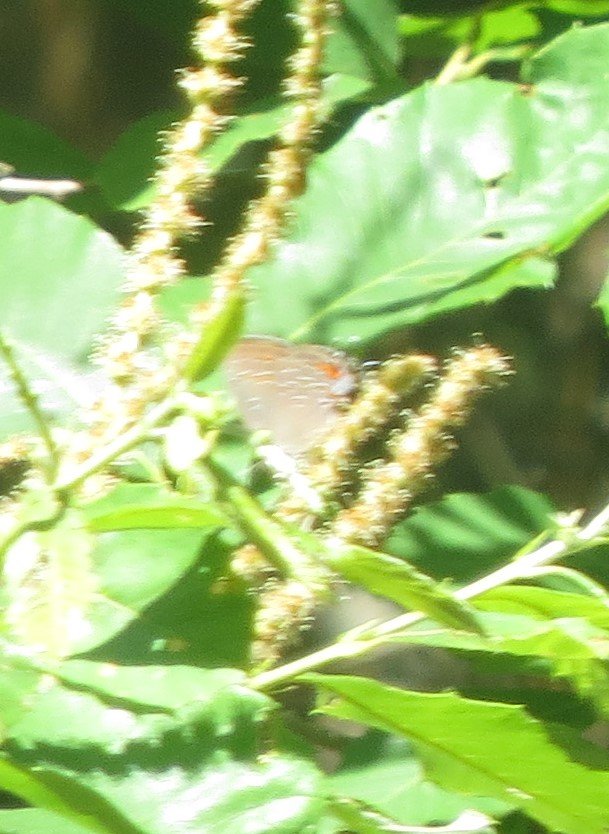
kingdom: Animalia
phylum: Arthropoda
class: Insecta
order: Lepidoptera
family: Lycaenidae
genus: Strymon
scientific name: Strymon kingi
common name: King's Hairstreak
